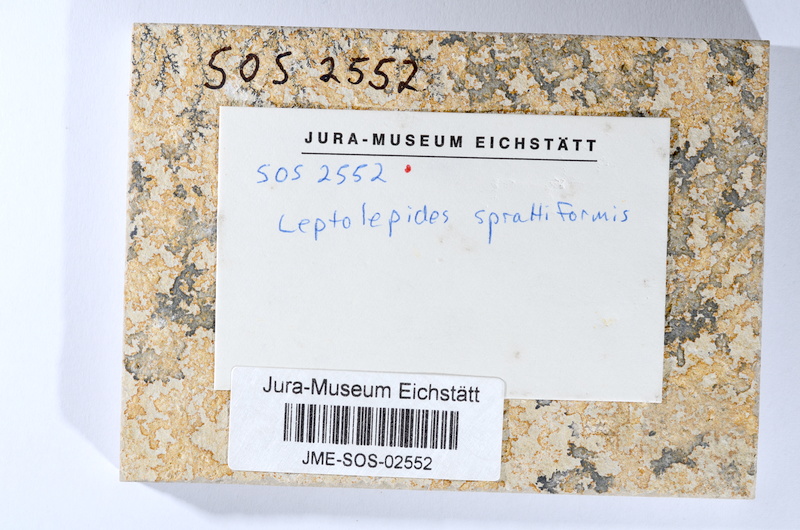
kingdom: Animalia
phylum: Chordata
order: Salmoniformes
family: Orthogonikleithridae
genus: Leptolepides
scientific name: Leptolepides sprattiformis
